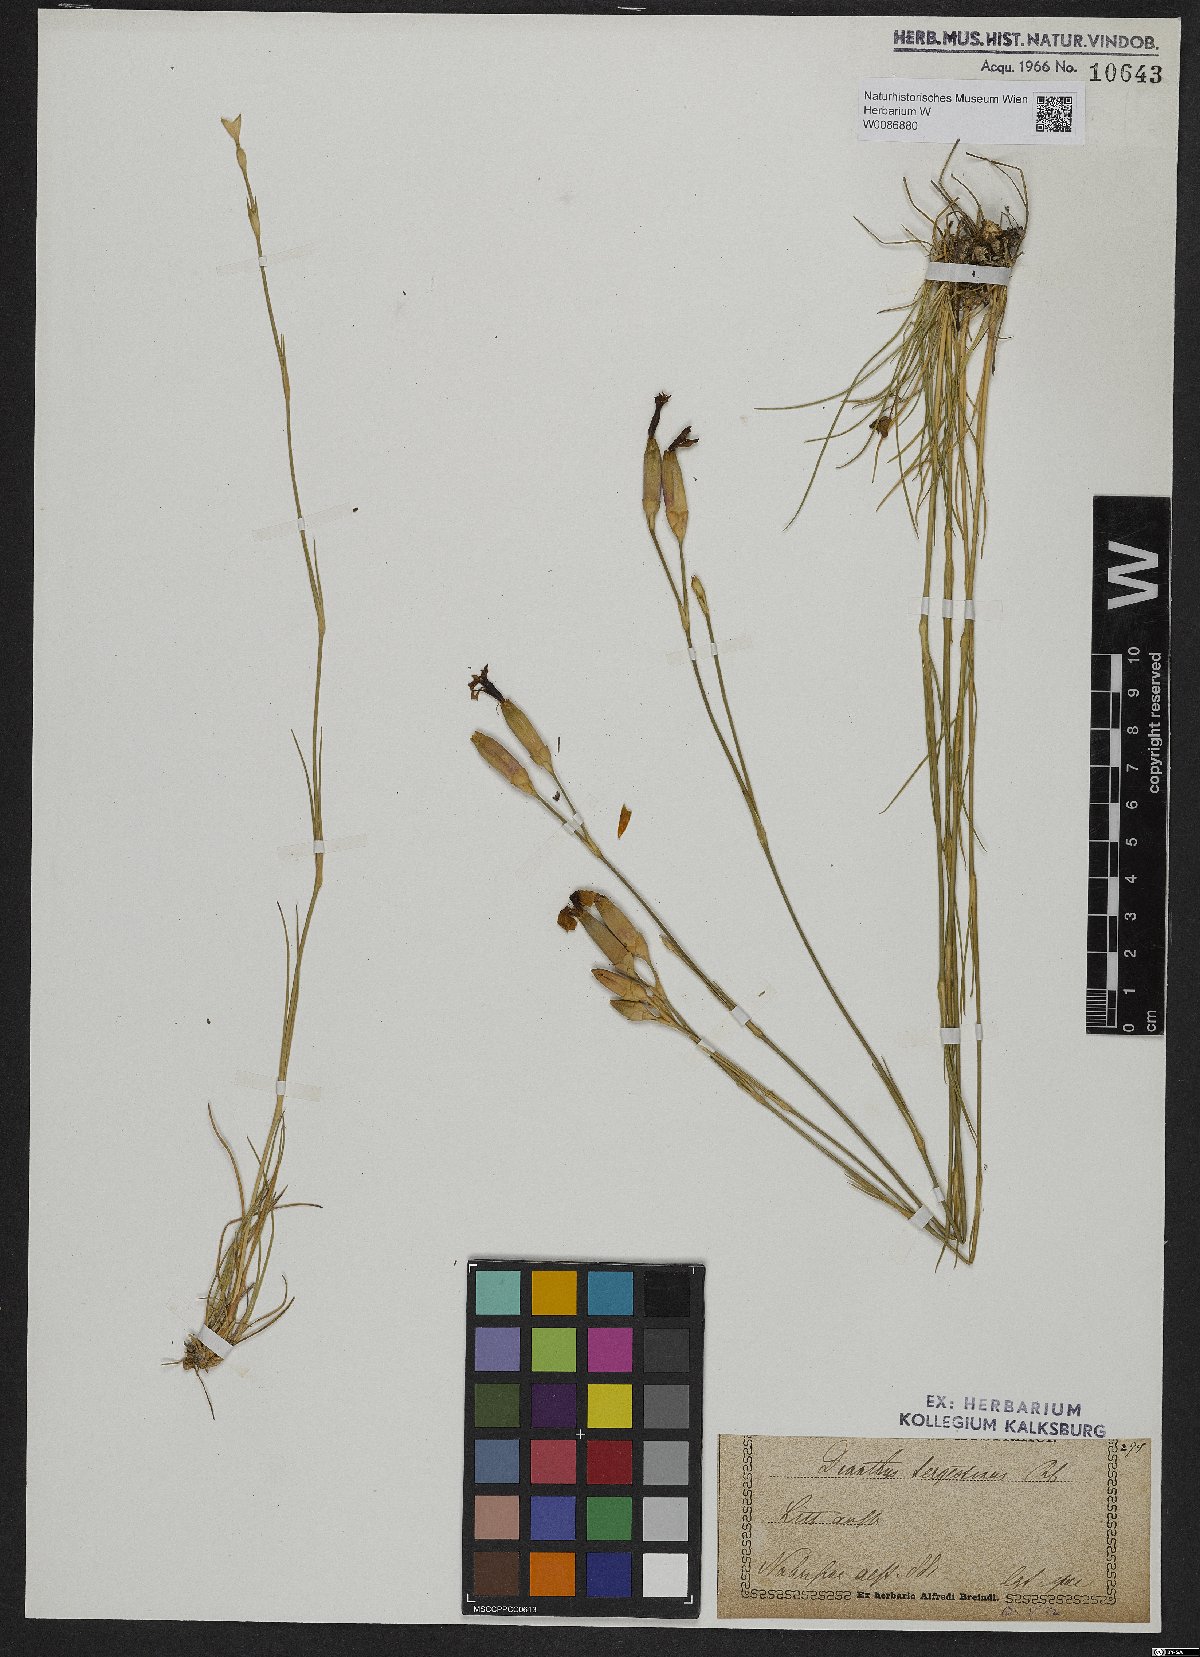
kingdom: Plantae
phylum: Tracheophyta
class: Magnoliopsida
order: Caryophyllales
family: Caryophyllaceae
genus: Dianthus
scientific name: Dianthus sylvestris
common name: Wood pink
